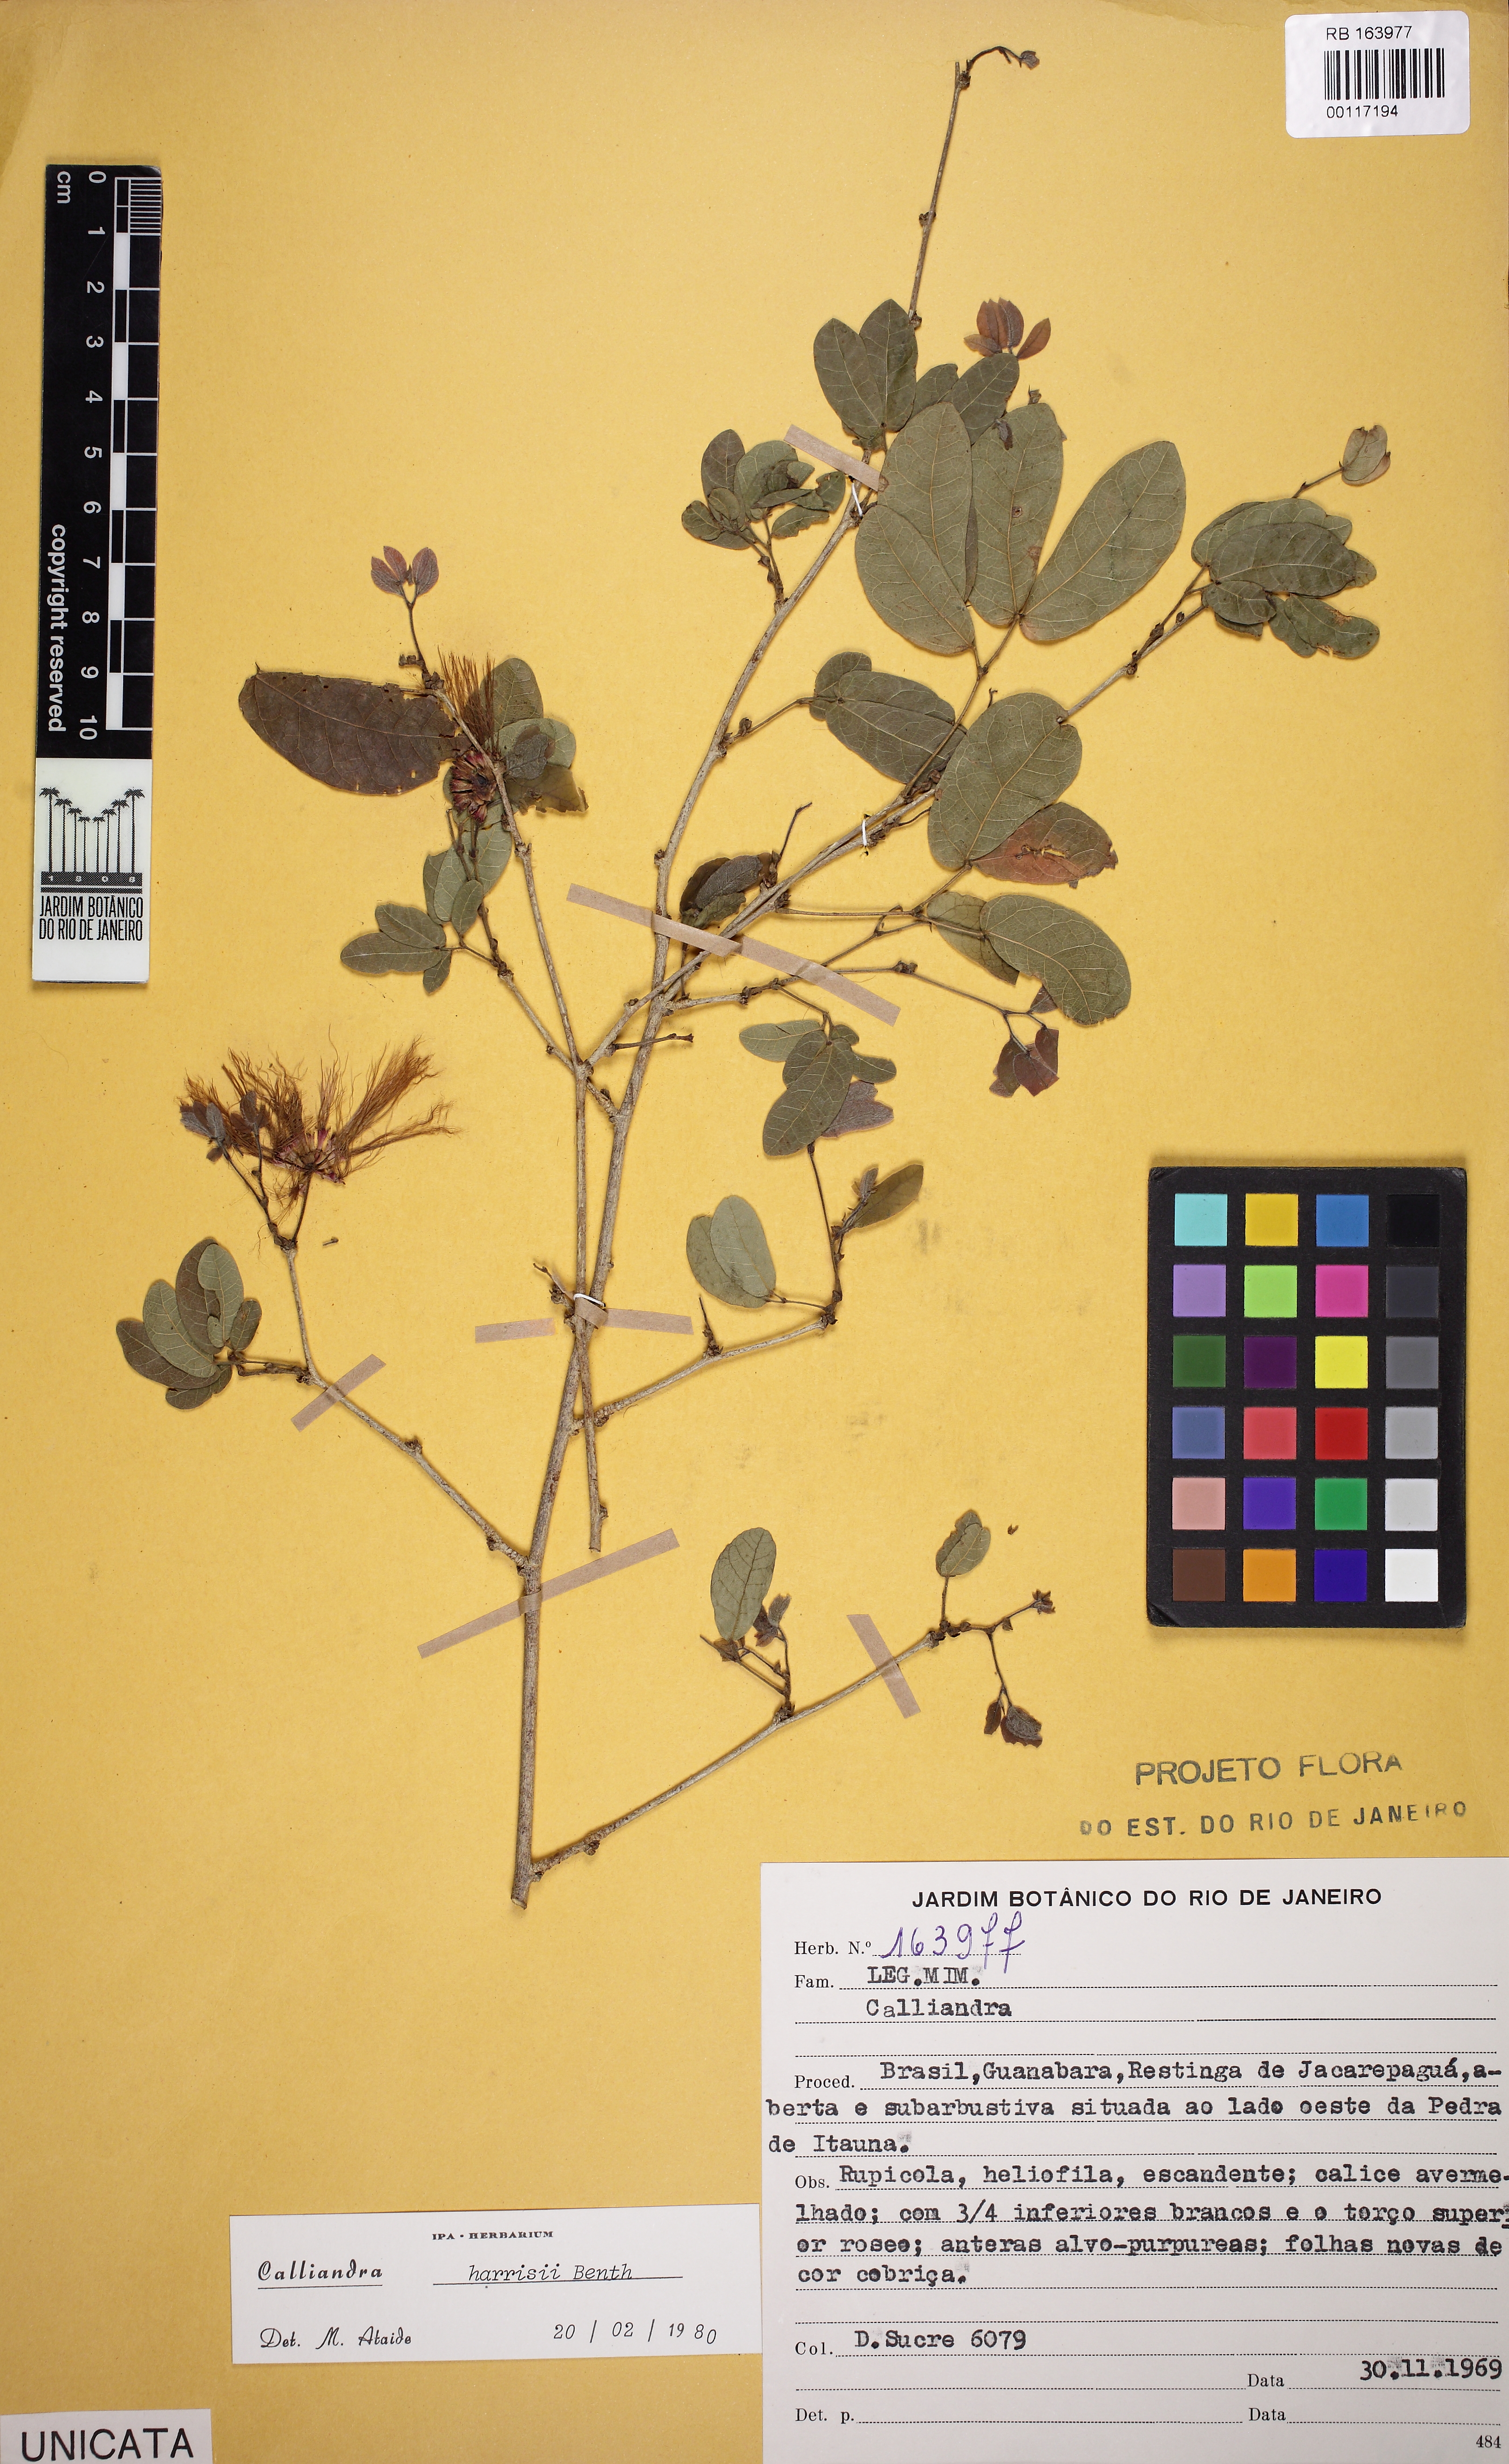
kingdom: Plantae
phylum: Tracheophyta
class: Magnoliopsida
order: Fabales
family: Fabaceae
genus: Calliandra
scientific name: Calliandra harrisii
